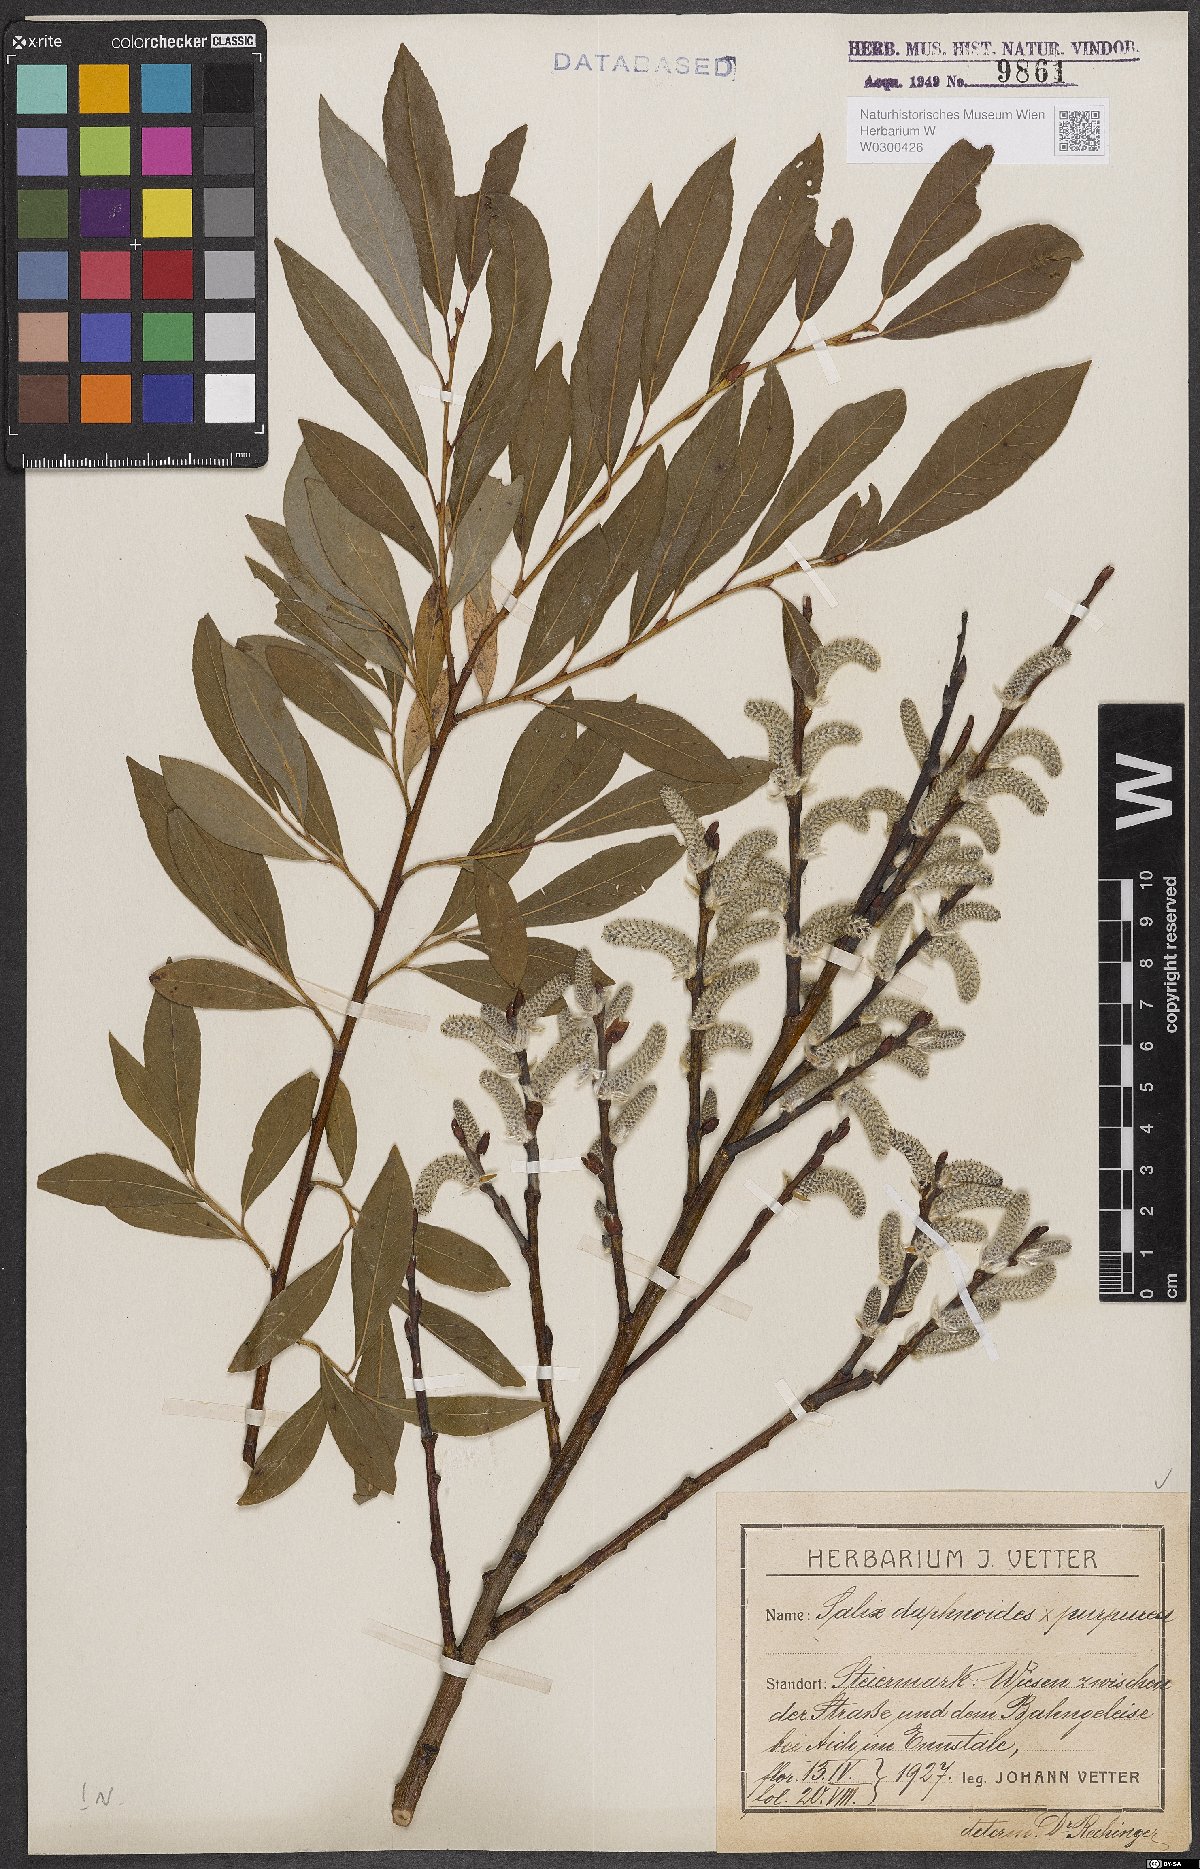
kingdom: Plantae
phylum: Tracheophyta
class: Magnoliopsida
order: Malpighiales
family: Salicaceae
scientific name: Salicaceae
